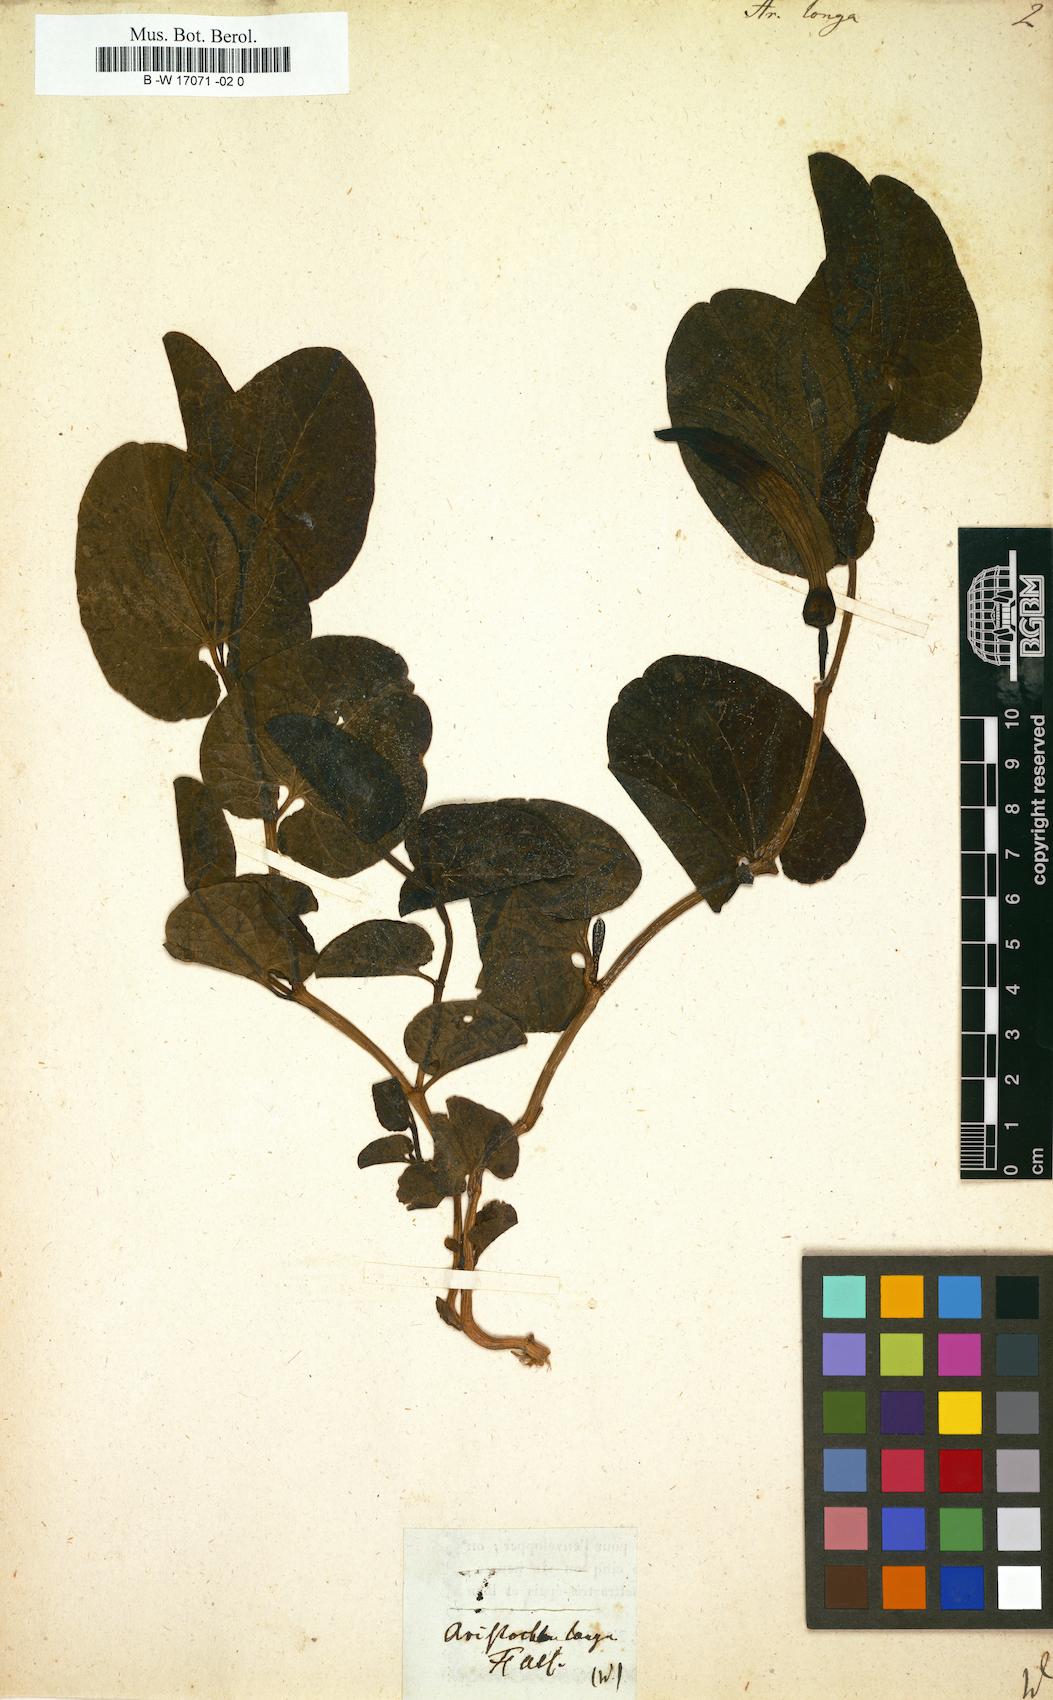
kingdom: Plantae
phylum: Tracheophyta
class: Magnoliopsida
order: Piperales
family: Aristolochiaceae
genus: Aristolochia
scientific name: Aristolochia fontanesii
